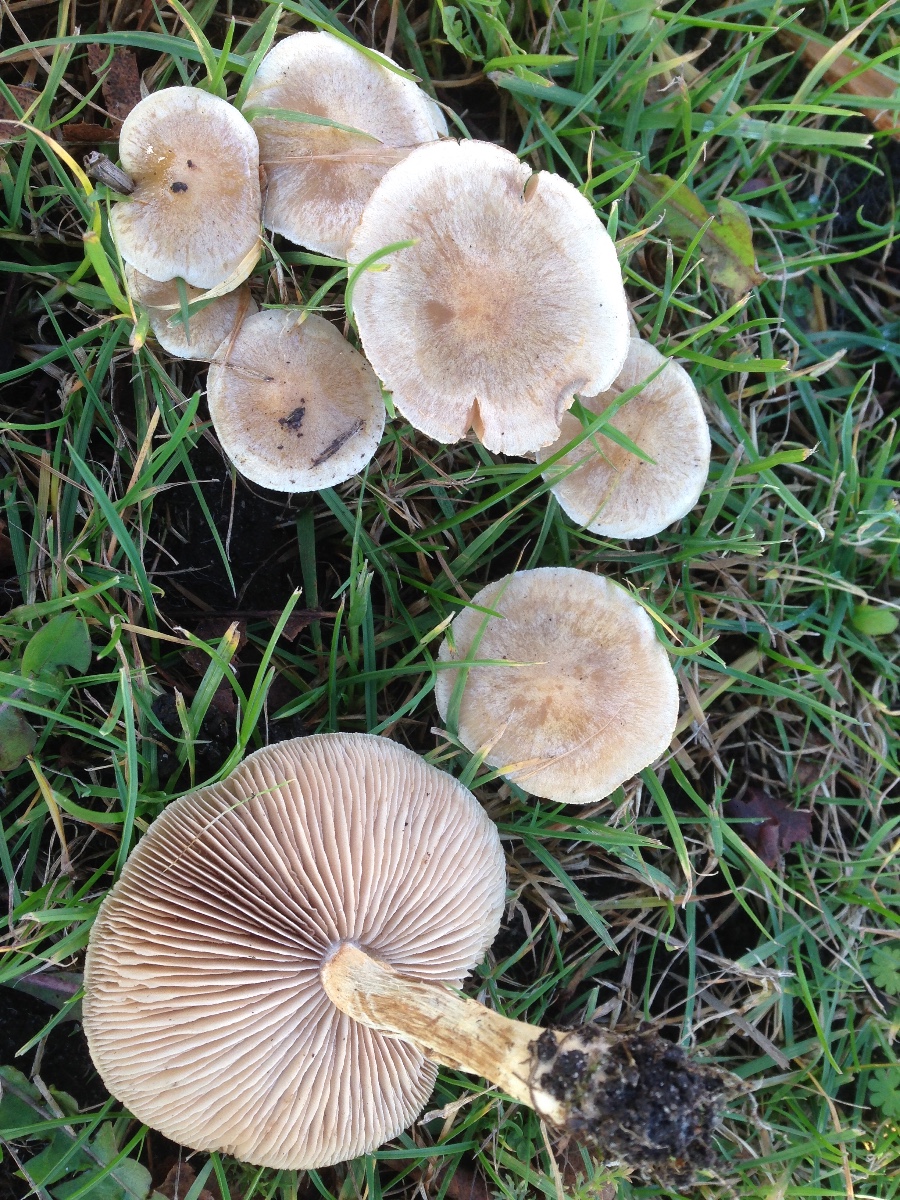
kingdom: Fungi
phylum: Basidiomycota
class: Agaricomycetes
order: Agaricales
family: Hymenogastraceae
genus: Hebeloma
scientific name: Hebeloma mesophaeum
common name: lerbrun tåreblad
